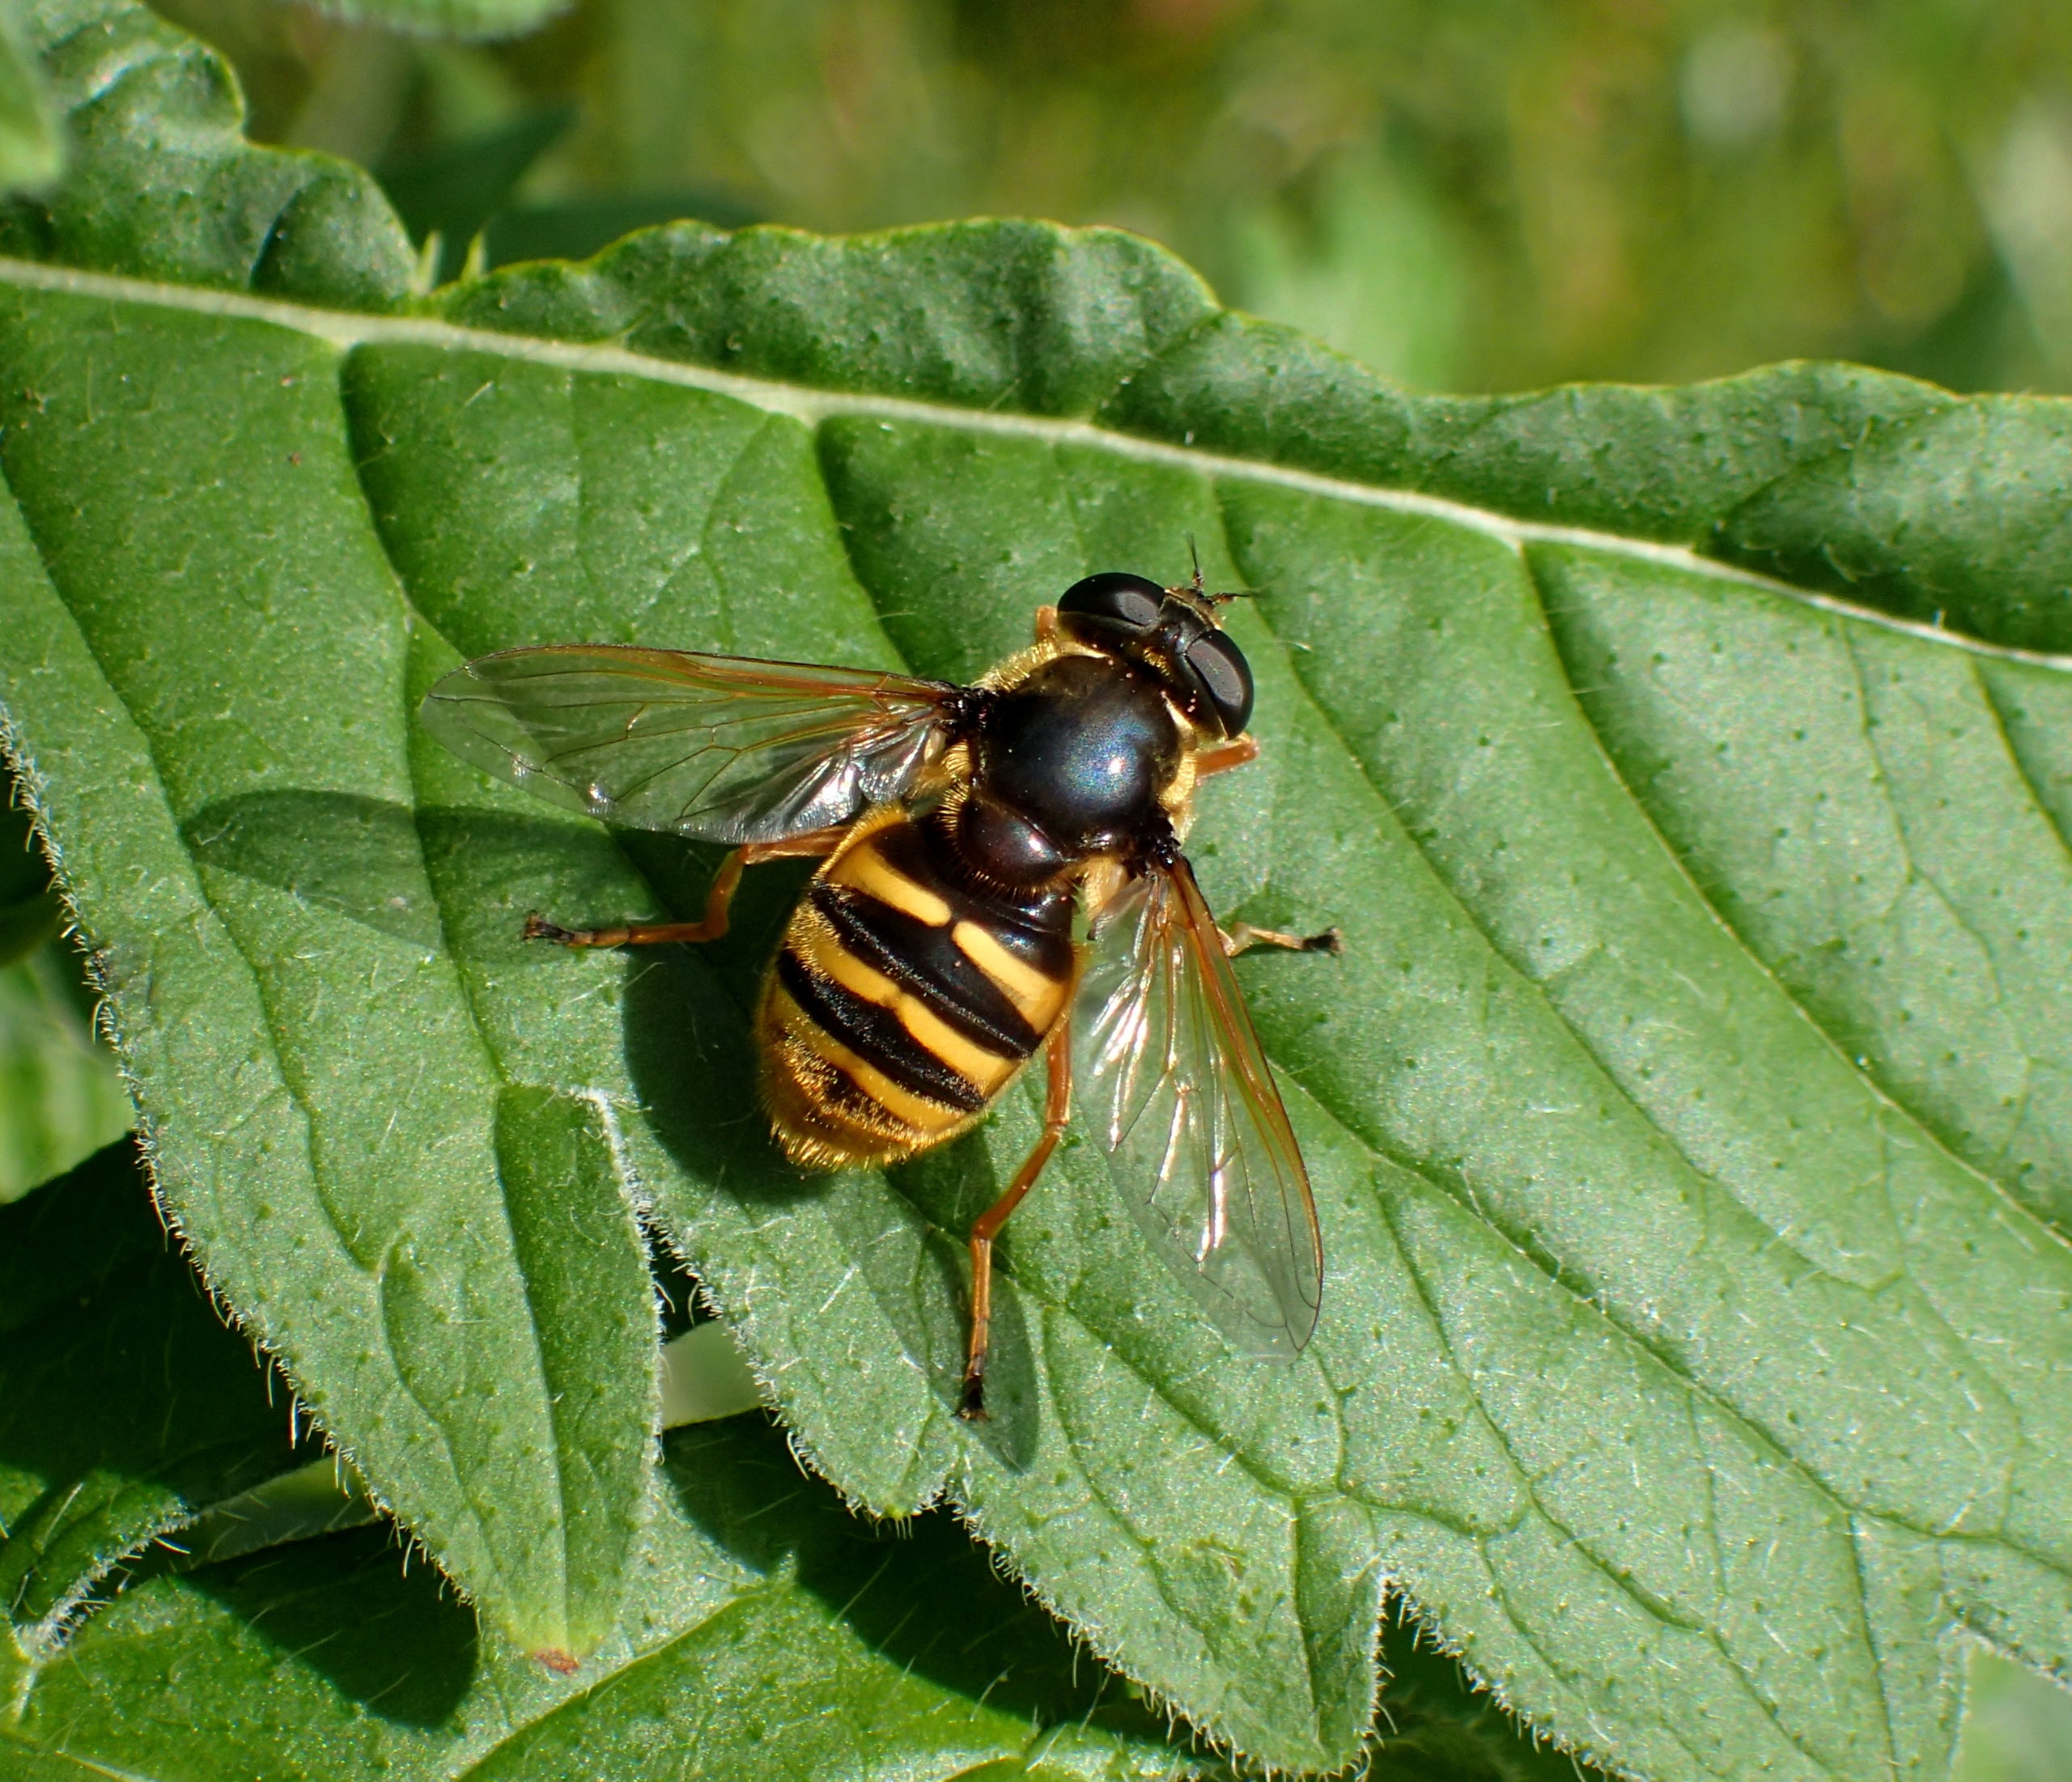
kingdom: Animalia
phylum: Arthropoda
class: Insecta
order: Diptera
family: Syrphidae
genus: Sericomyia
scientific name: Sericomyia silentis
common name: Tørve-silkesvirreflue
